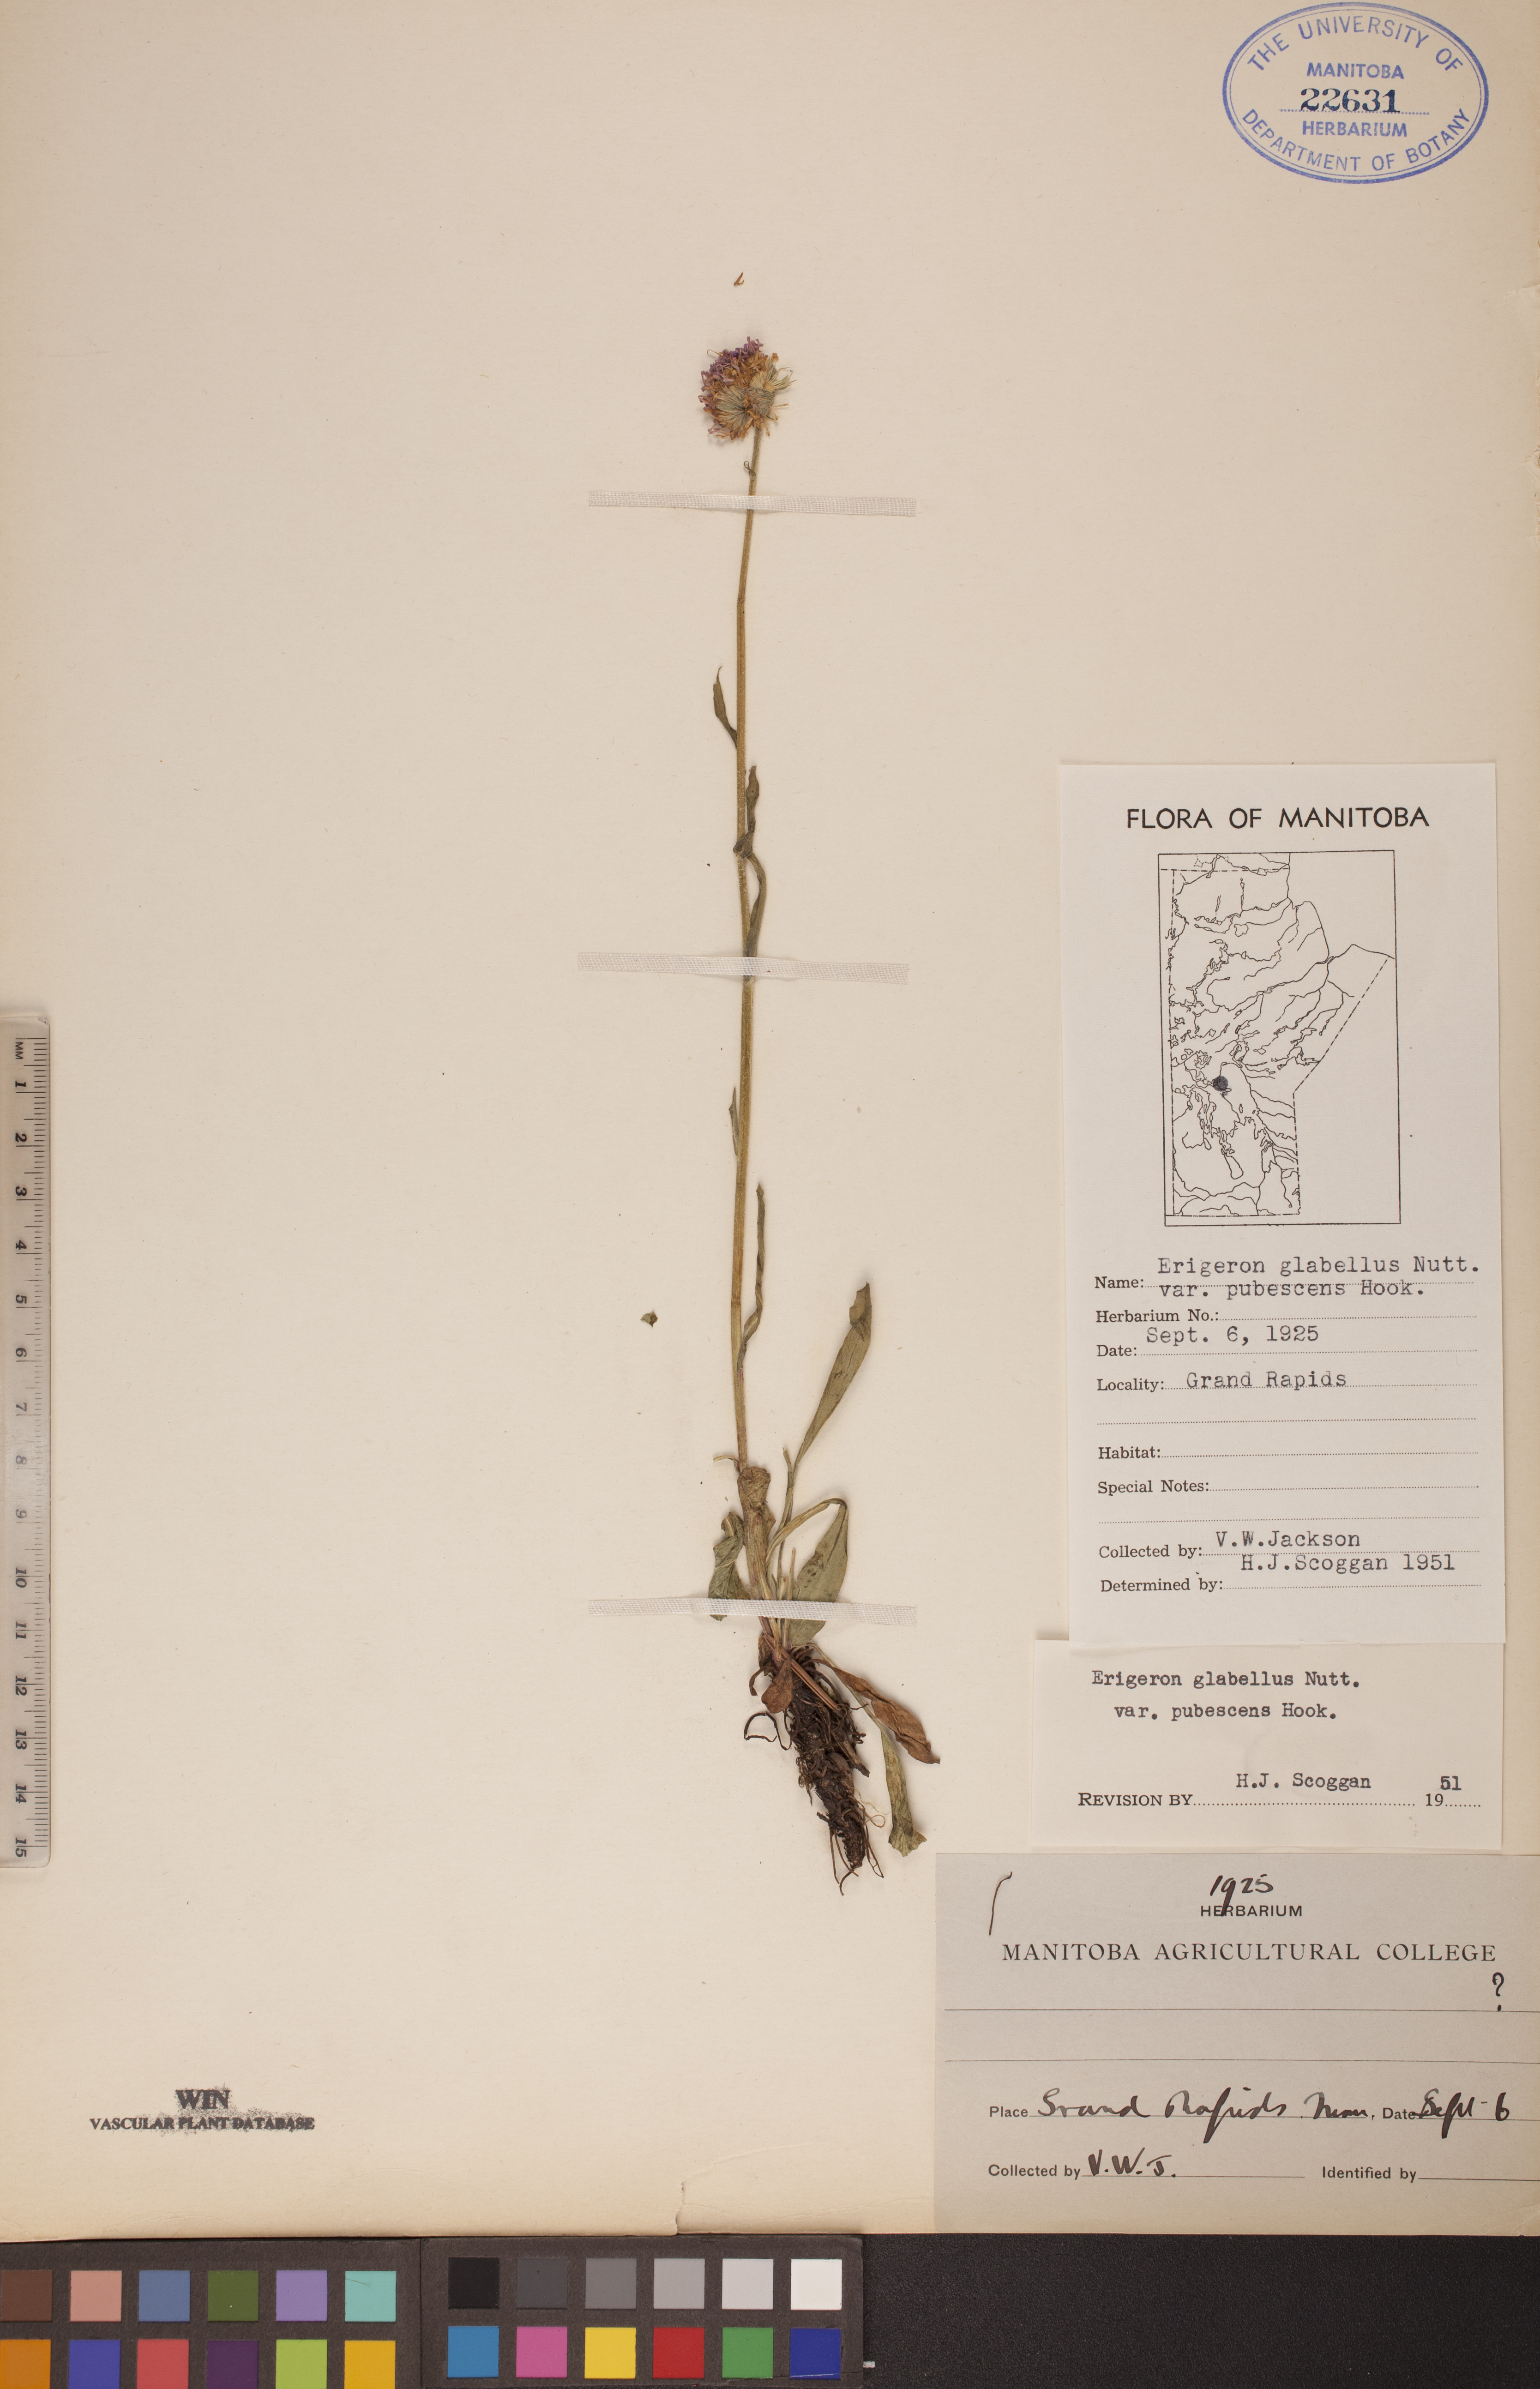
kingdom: Plantae
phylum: Tracheophyta
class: Magnoliopsida
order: Asterales
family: Asteraceae
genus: Erigeron
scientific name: Erigeron glabellus
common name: Smooth fleabane
